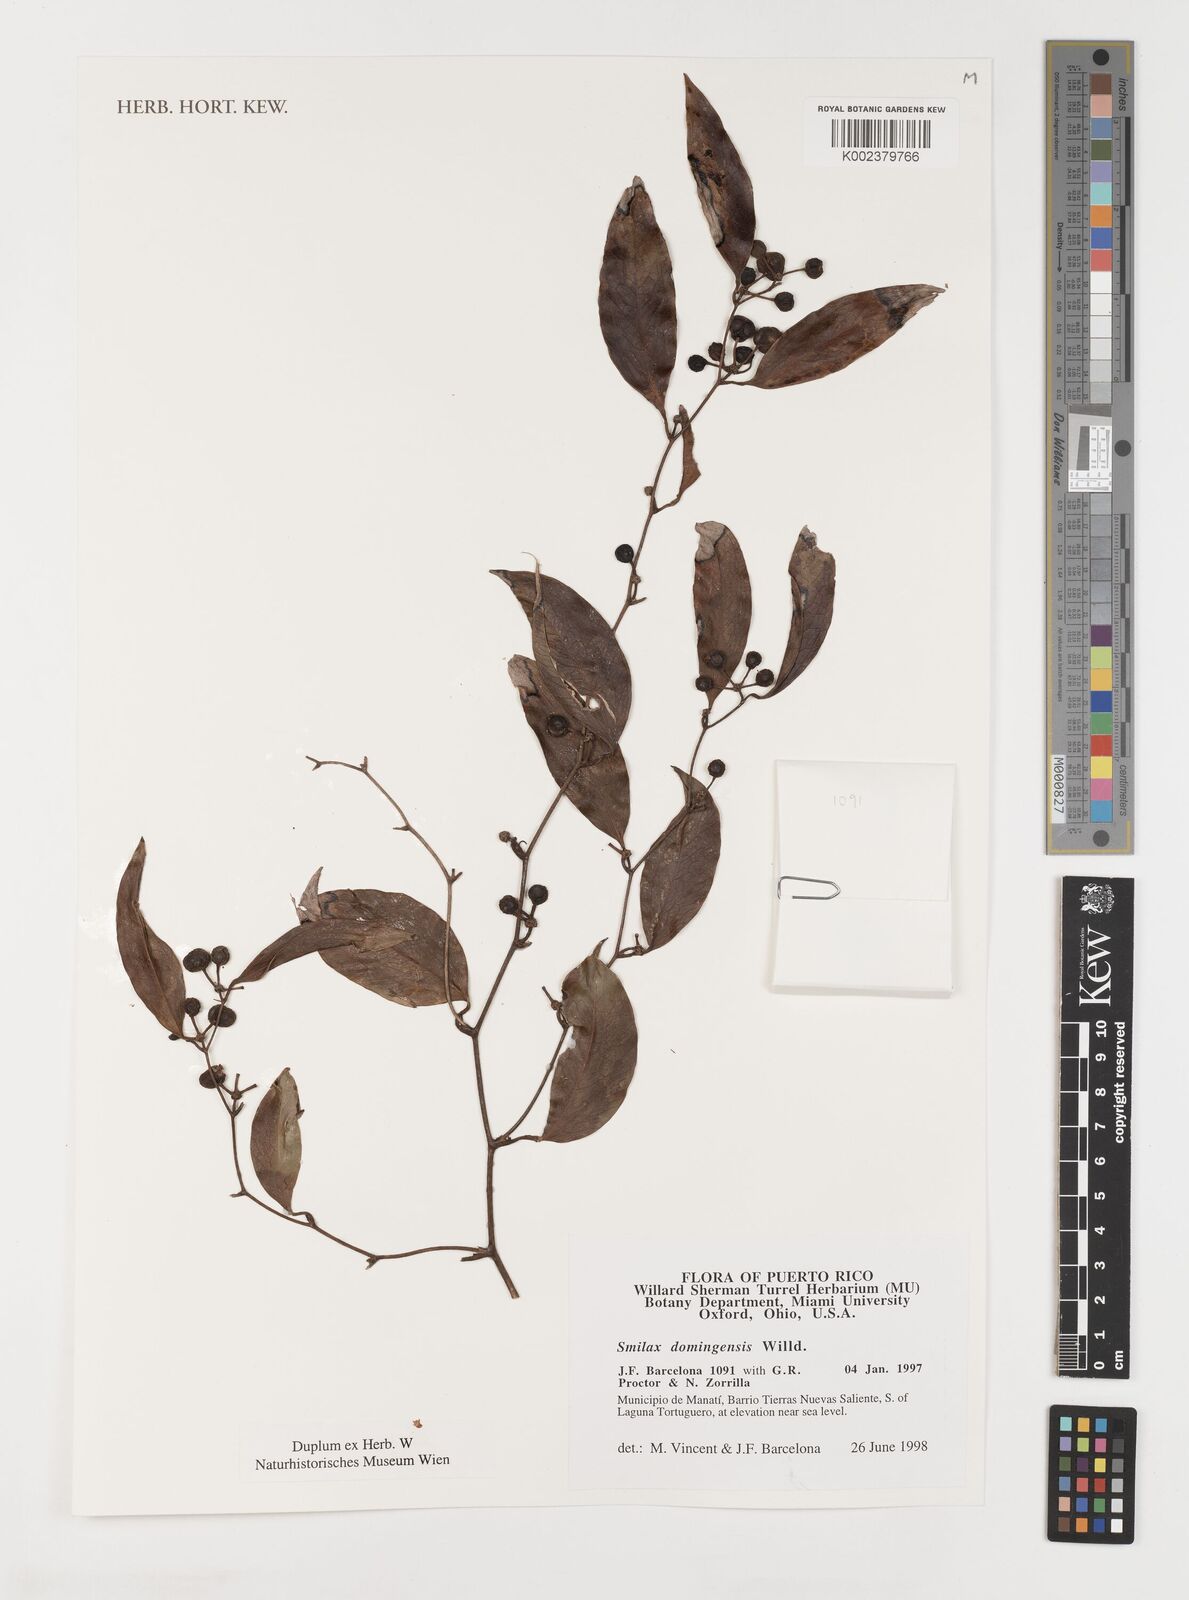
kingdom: Plantae
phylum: Tracheophyta
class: Liliopsida
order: Liliales
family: Smilacaceae
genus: Smilax
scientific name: Smilax domingensis
